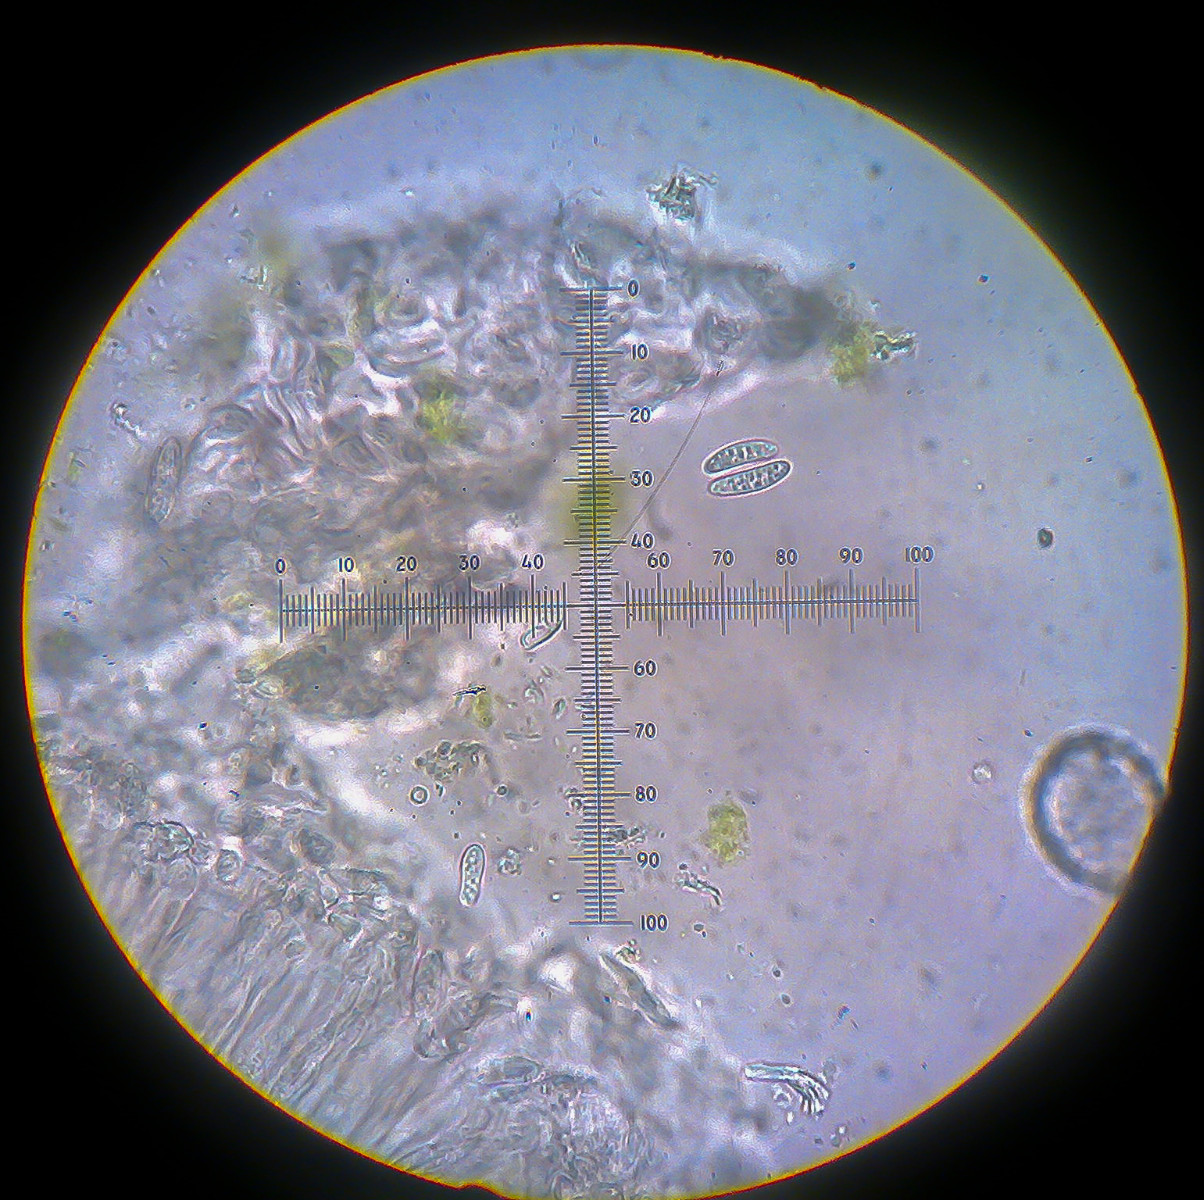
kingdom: Fungi
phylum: Ascomycota
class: Lecanoromycetes
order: Lecanorales
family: Ramalinaceae
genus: Lecania
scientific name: Lecania cyrtellina
